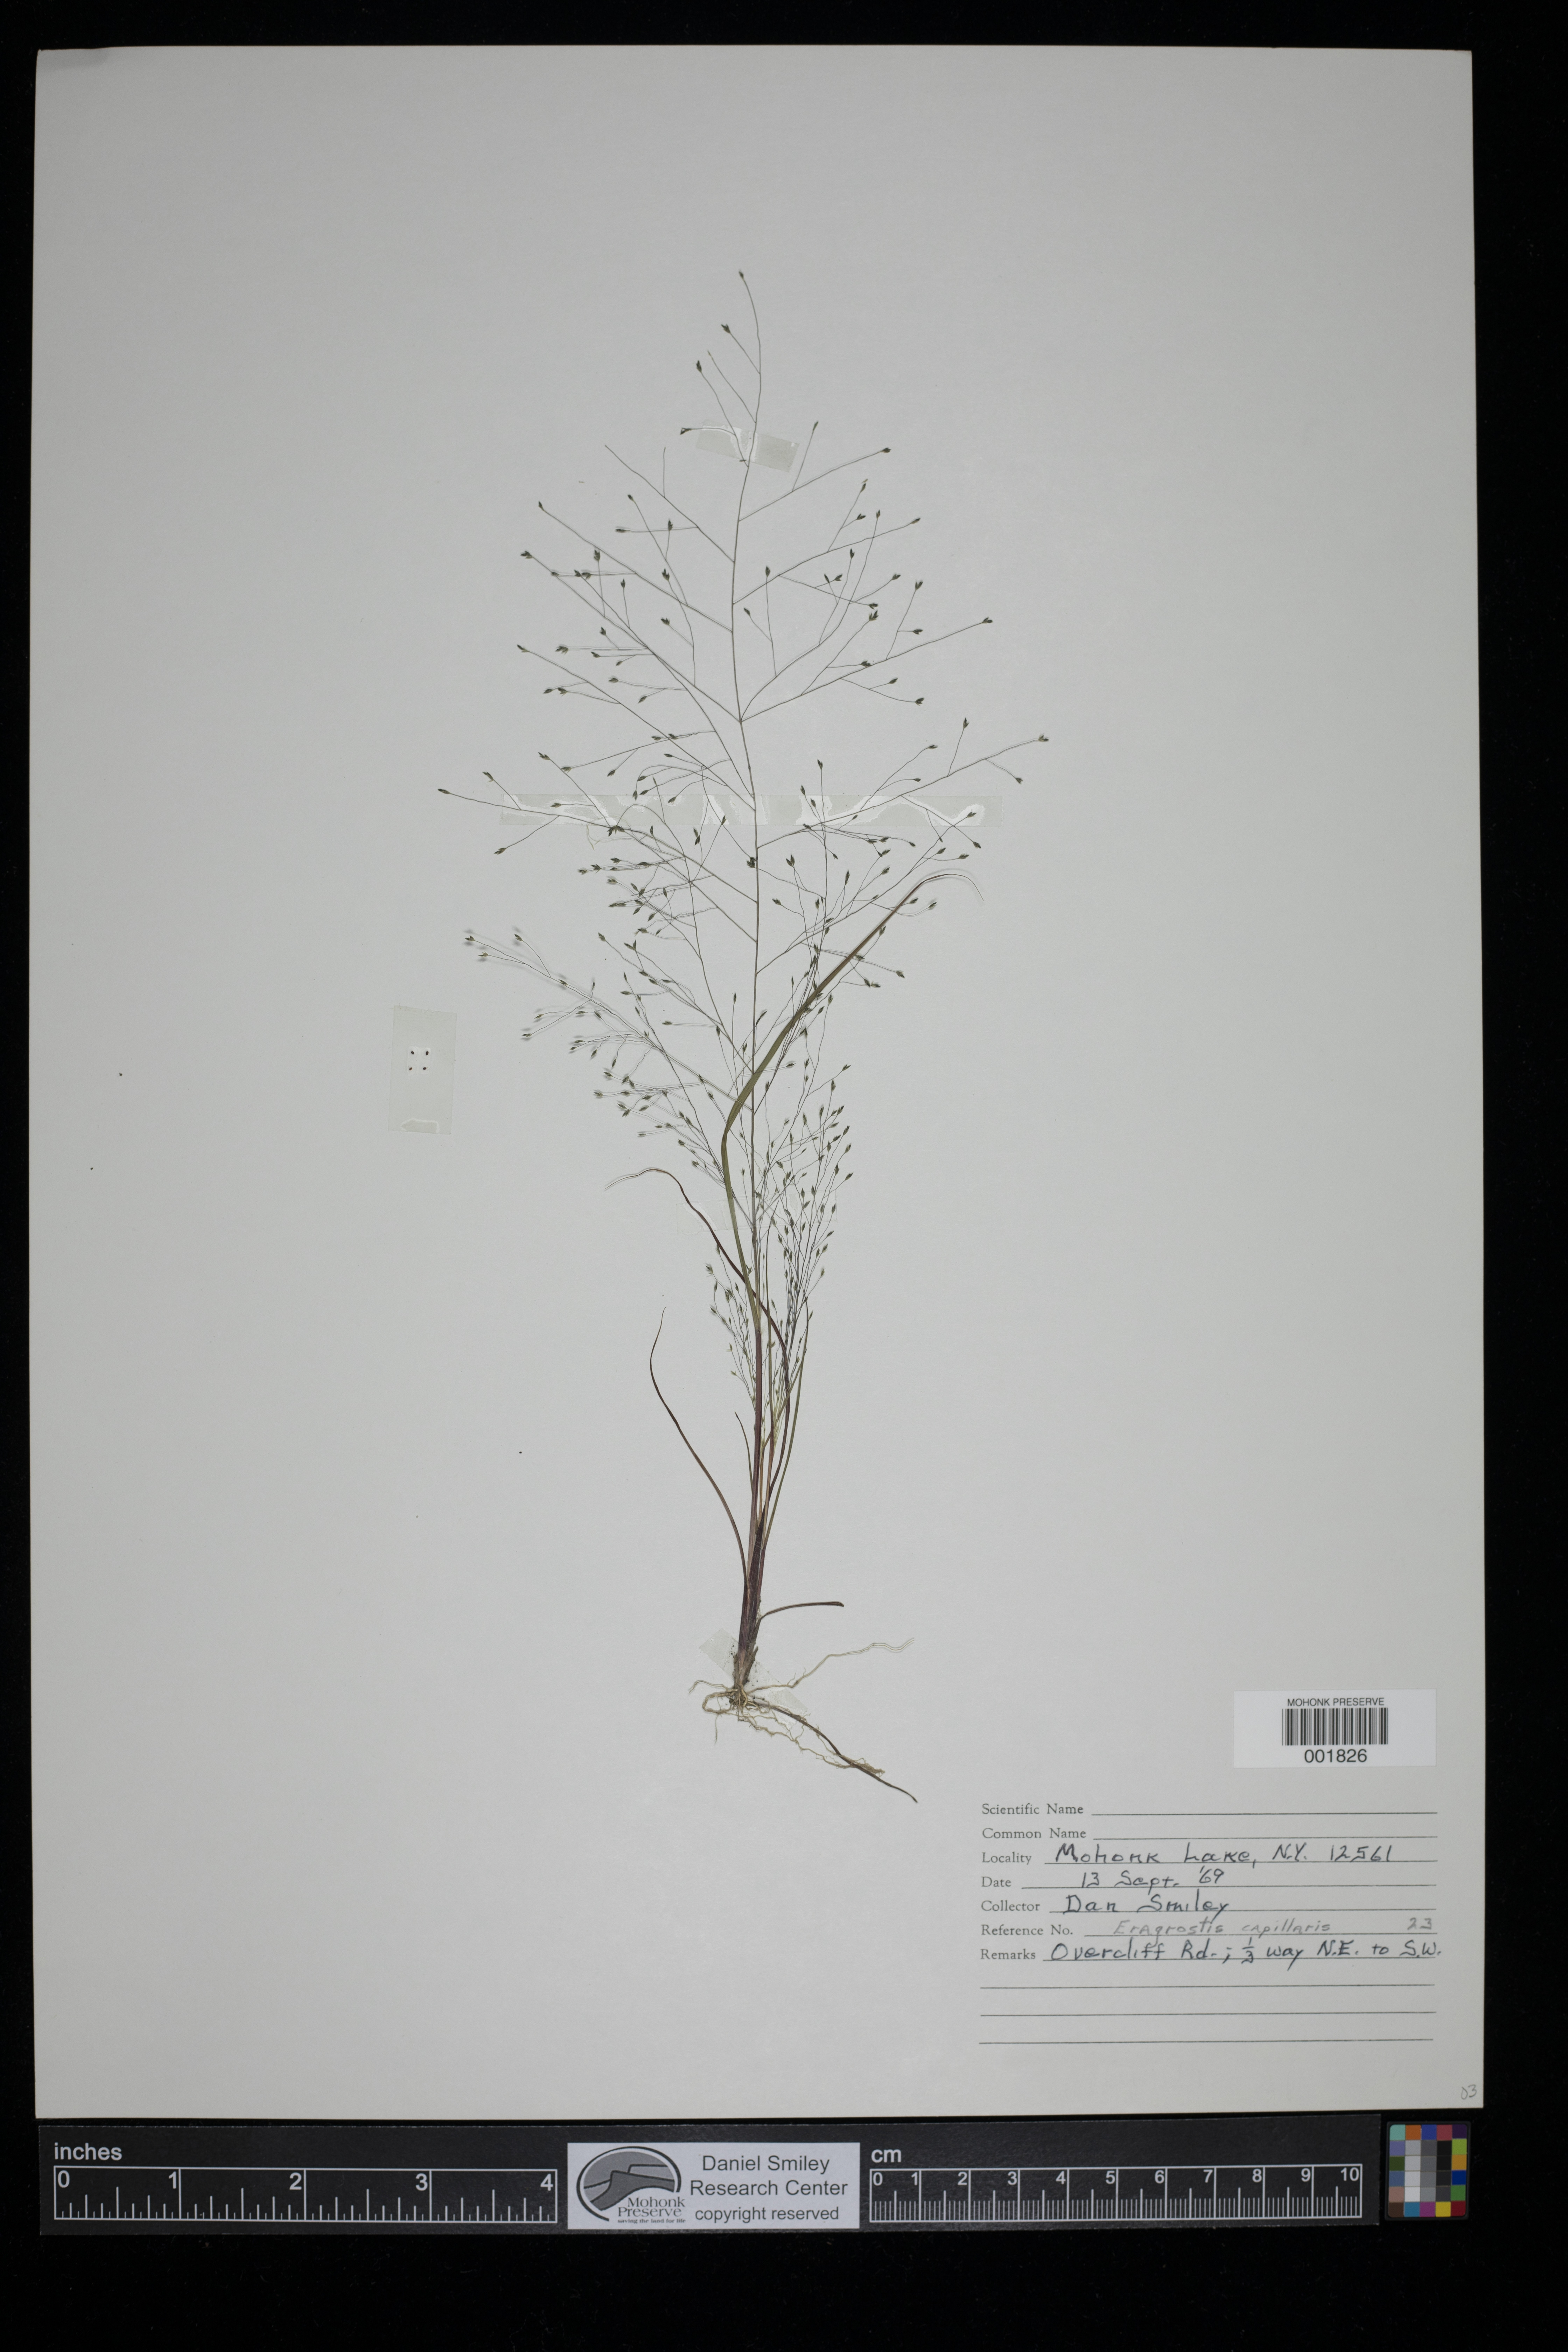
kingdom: Plantae
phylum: Tracheophyta
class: Liliopsida
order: Poales
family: Poaceae
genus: Eragrostis
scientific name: Eragrostis capillaris
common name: Hair-like lovegrass
